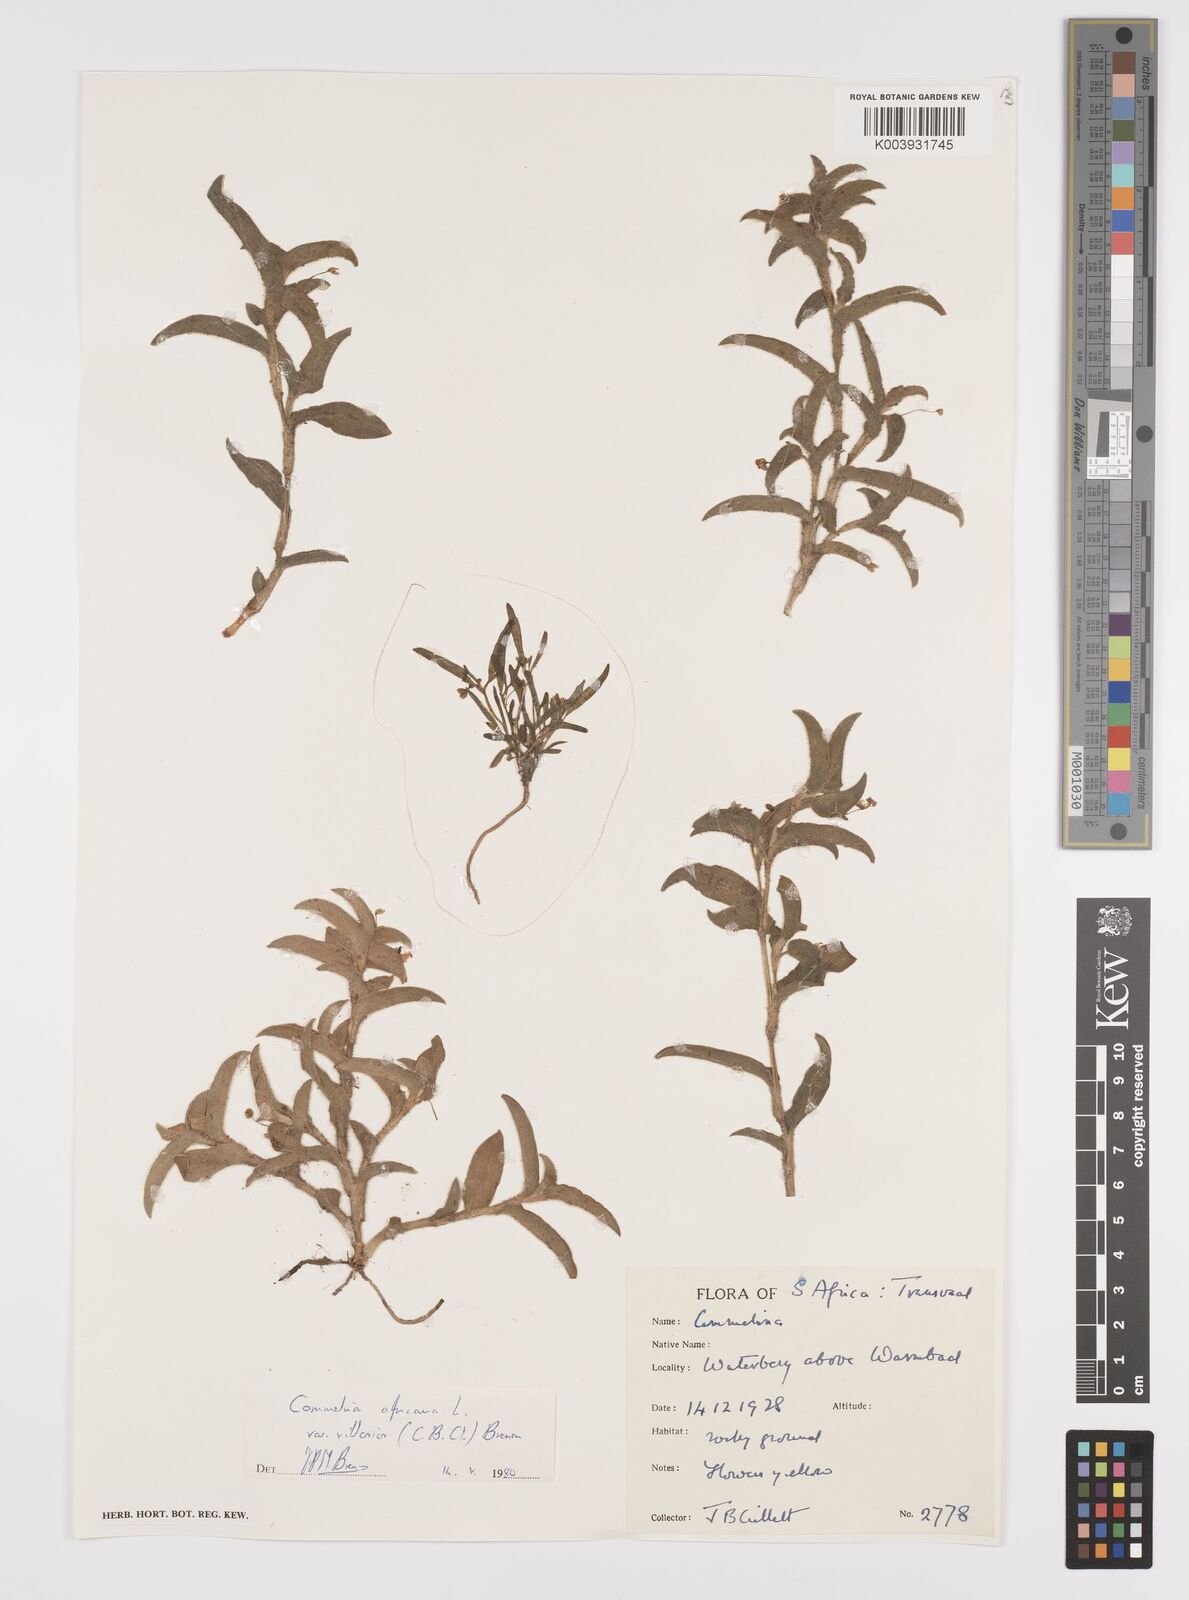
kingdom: Plantae
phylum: Tracheophyta
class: Liliopsida
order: Commelinales
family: Commelinaceae
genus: Commelina
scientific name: Commelina africana
